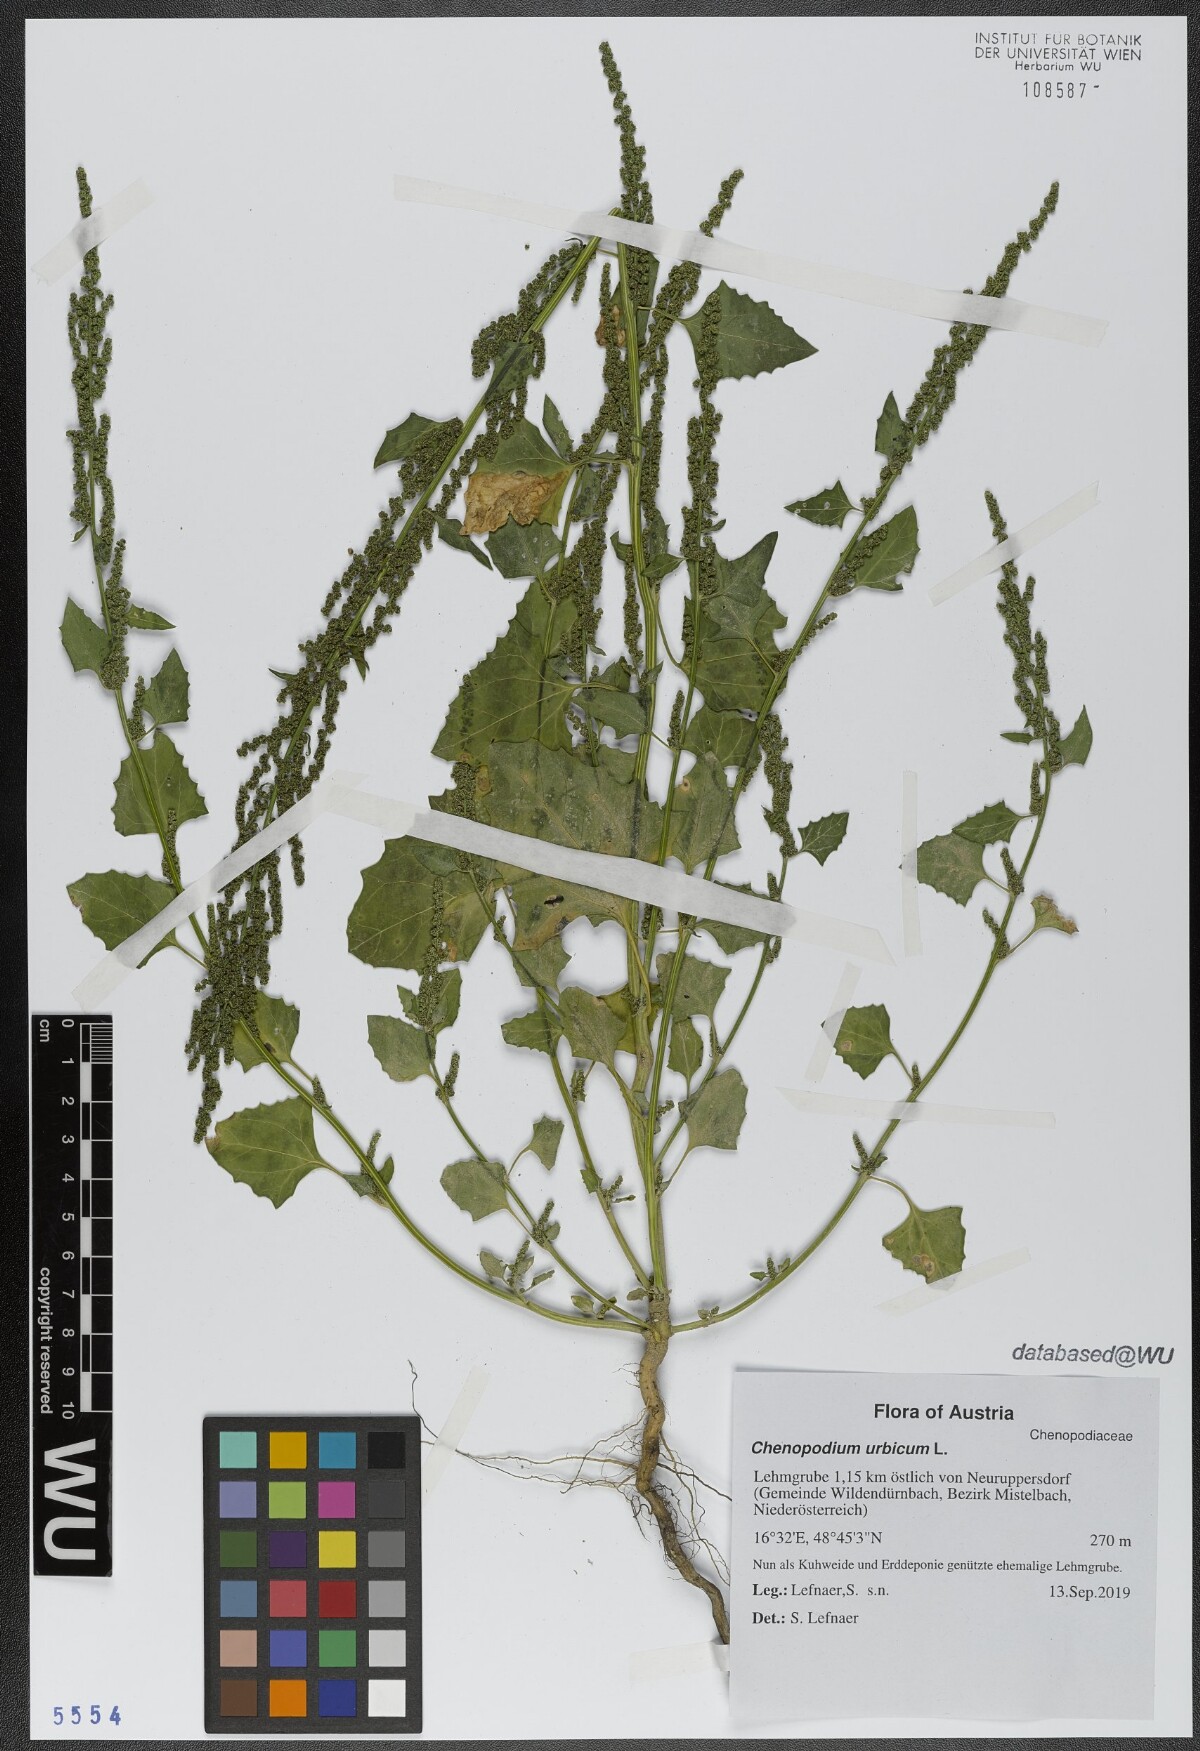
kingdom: Plantae
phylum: Tracheophyta
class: Magnoliopsida
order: Caryophyllales
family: Amaranthaceae
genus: Oxybasis
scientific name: Oxybasis urbica
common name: City goosefoot
